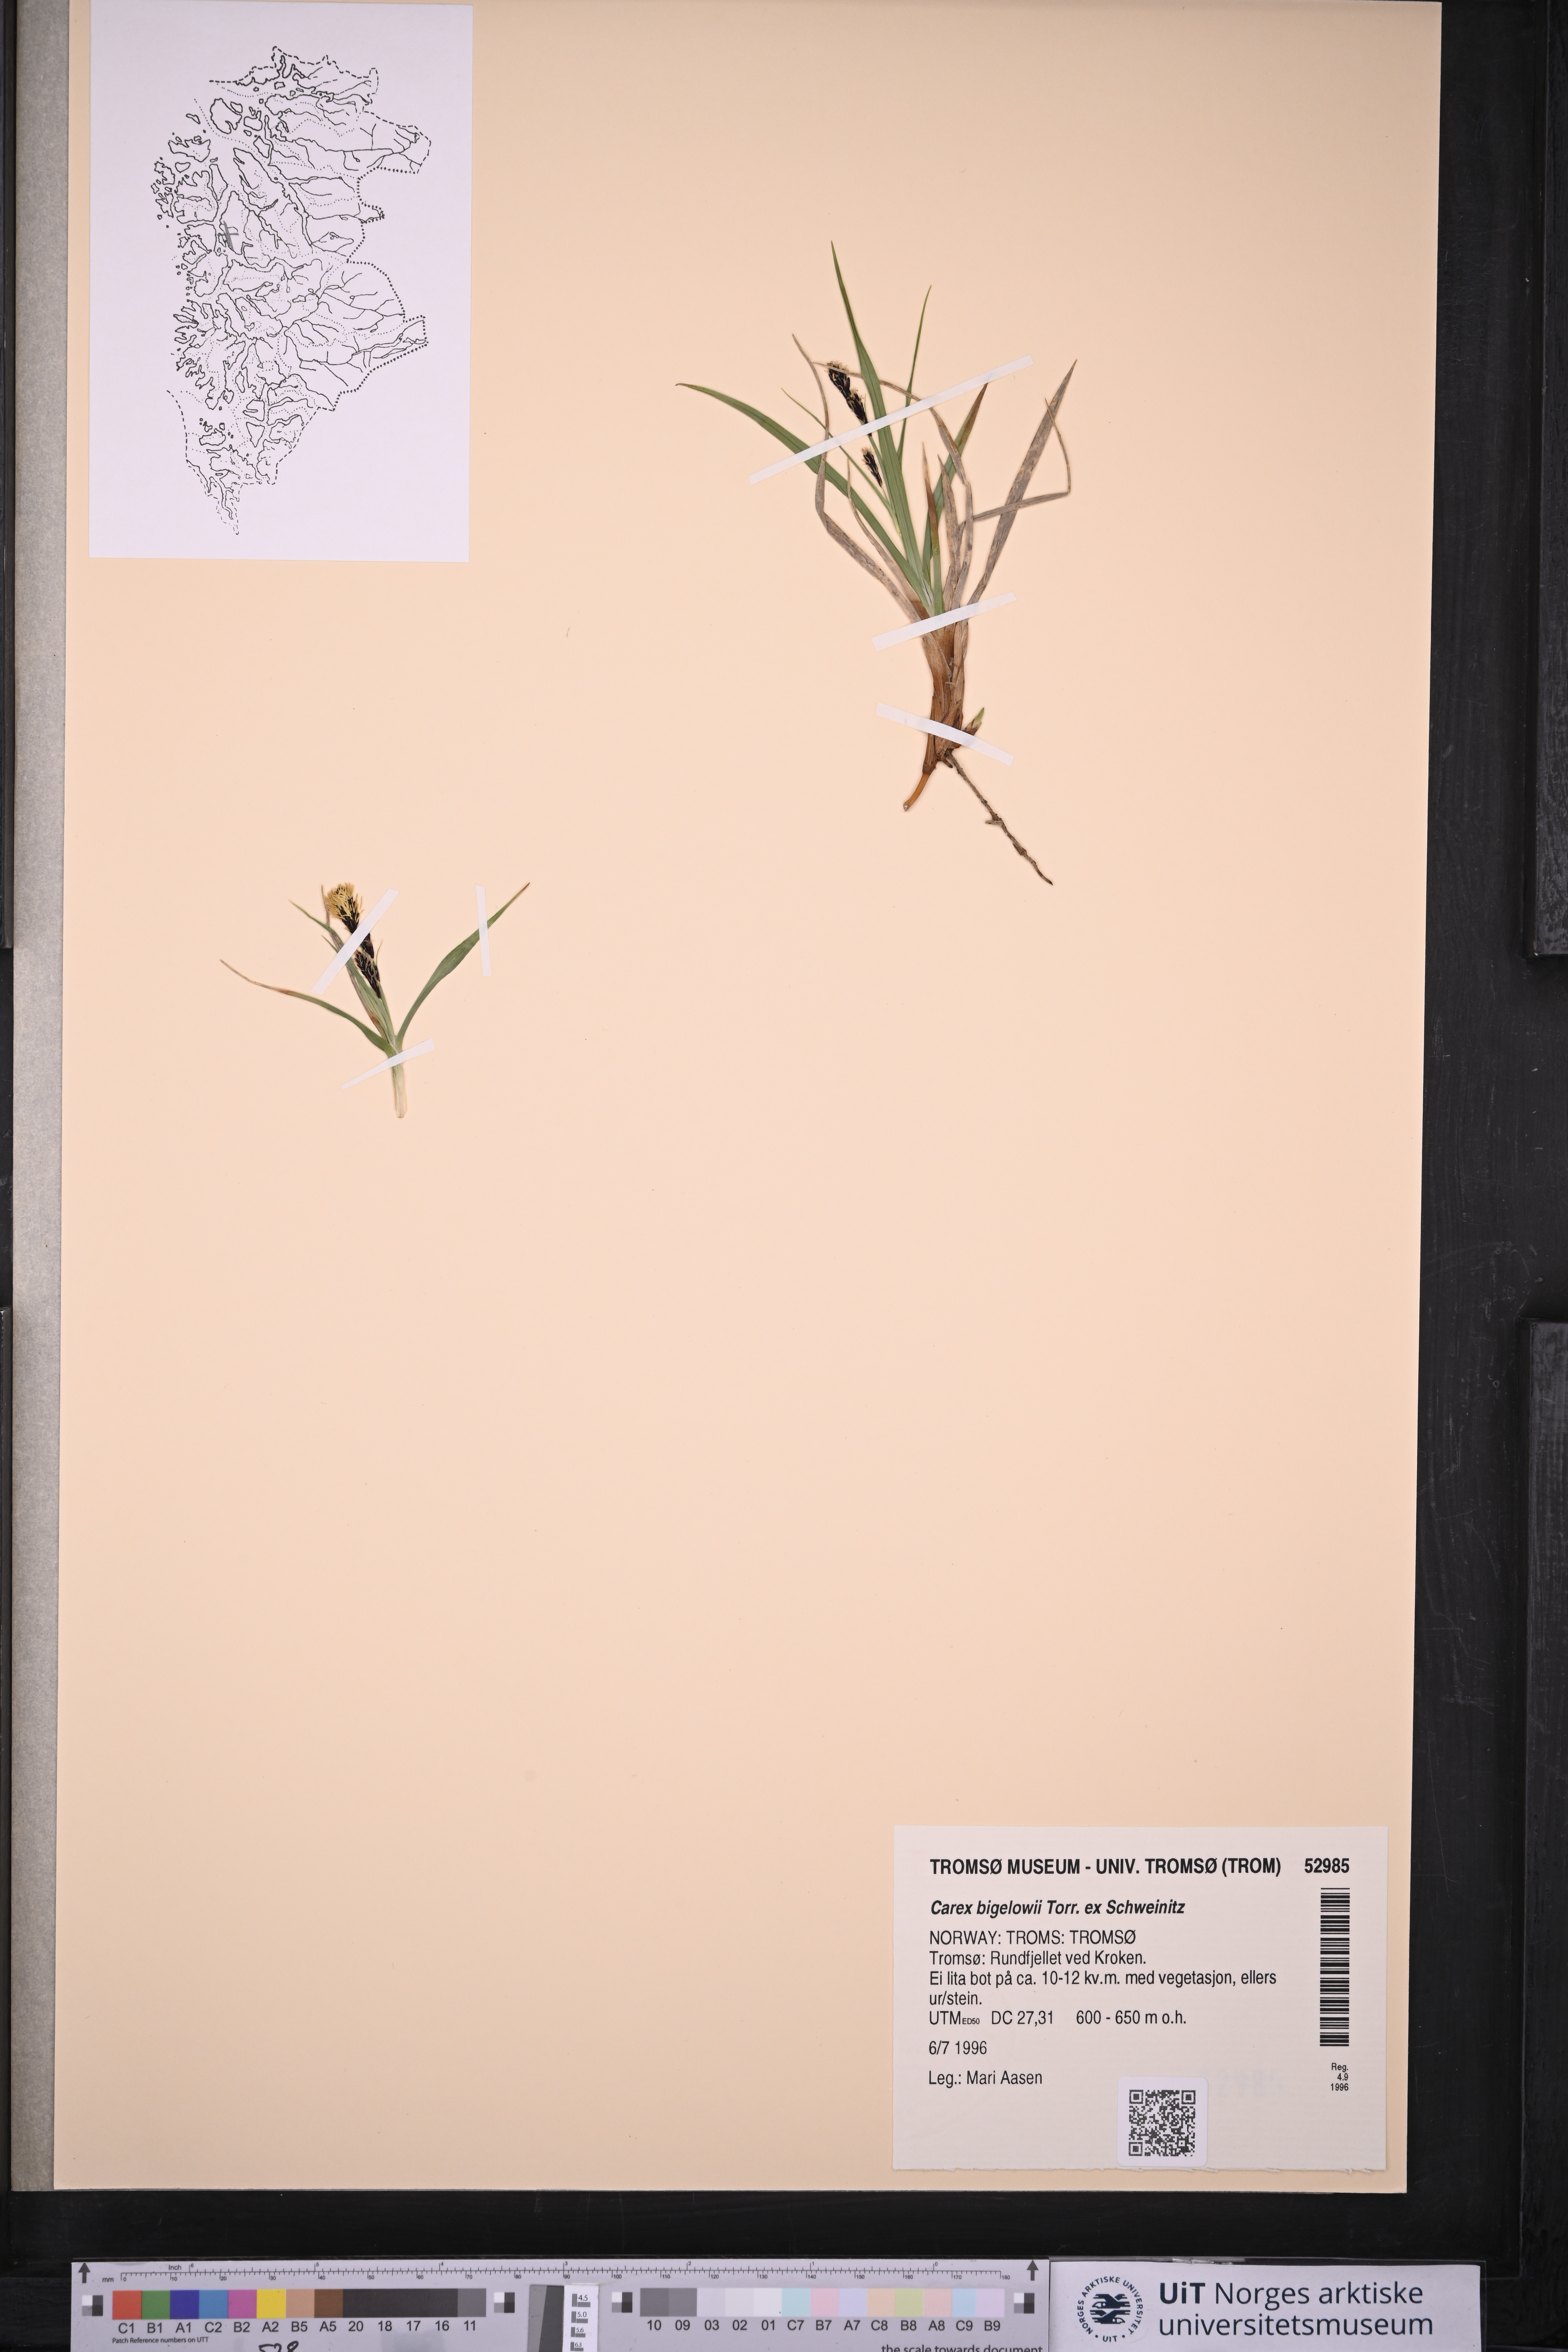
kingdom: Plantae
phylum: Tracheophyta
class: Liliopsida
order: Poales
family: Cyperaceae
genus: Carex
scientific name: Carex bigelowii
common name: Stiff sedge
